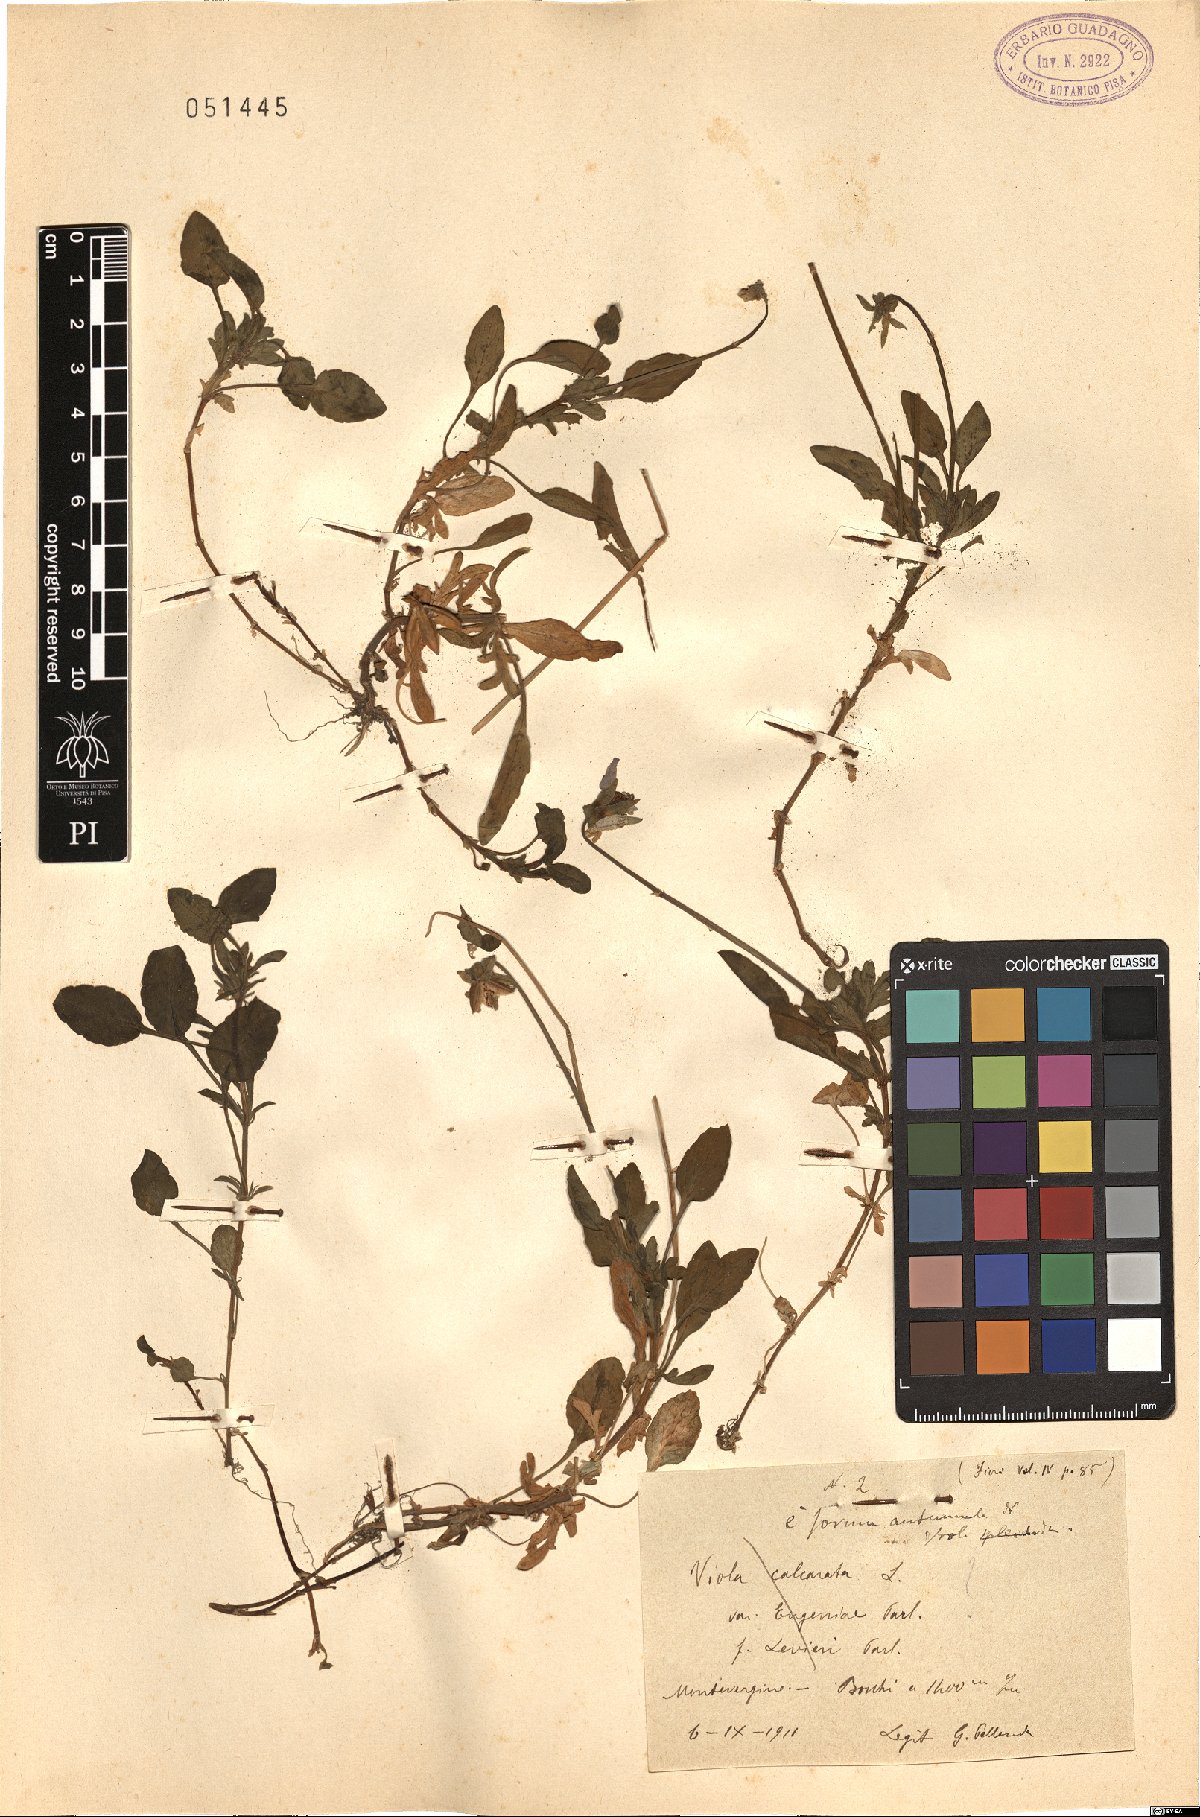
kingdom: Plantae
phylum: Tracheophyta
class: Magnoliopsida
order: Malpighiales
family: Violaceae
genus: Viola
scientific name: Viola aethnensis
